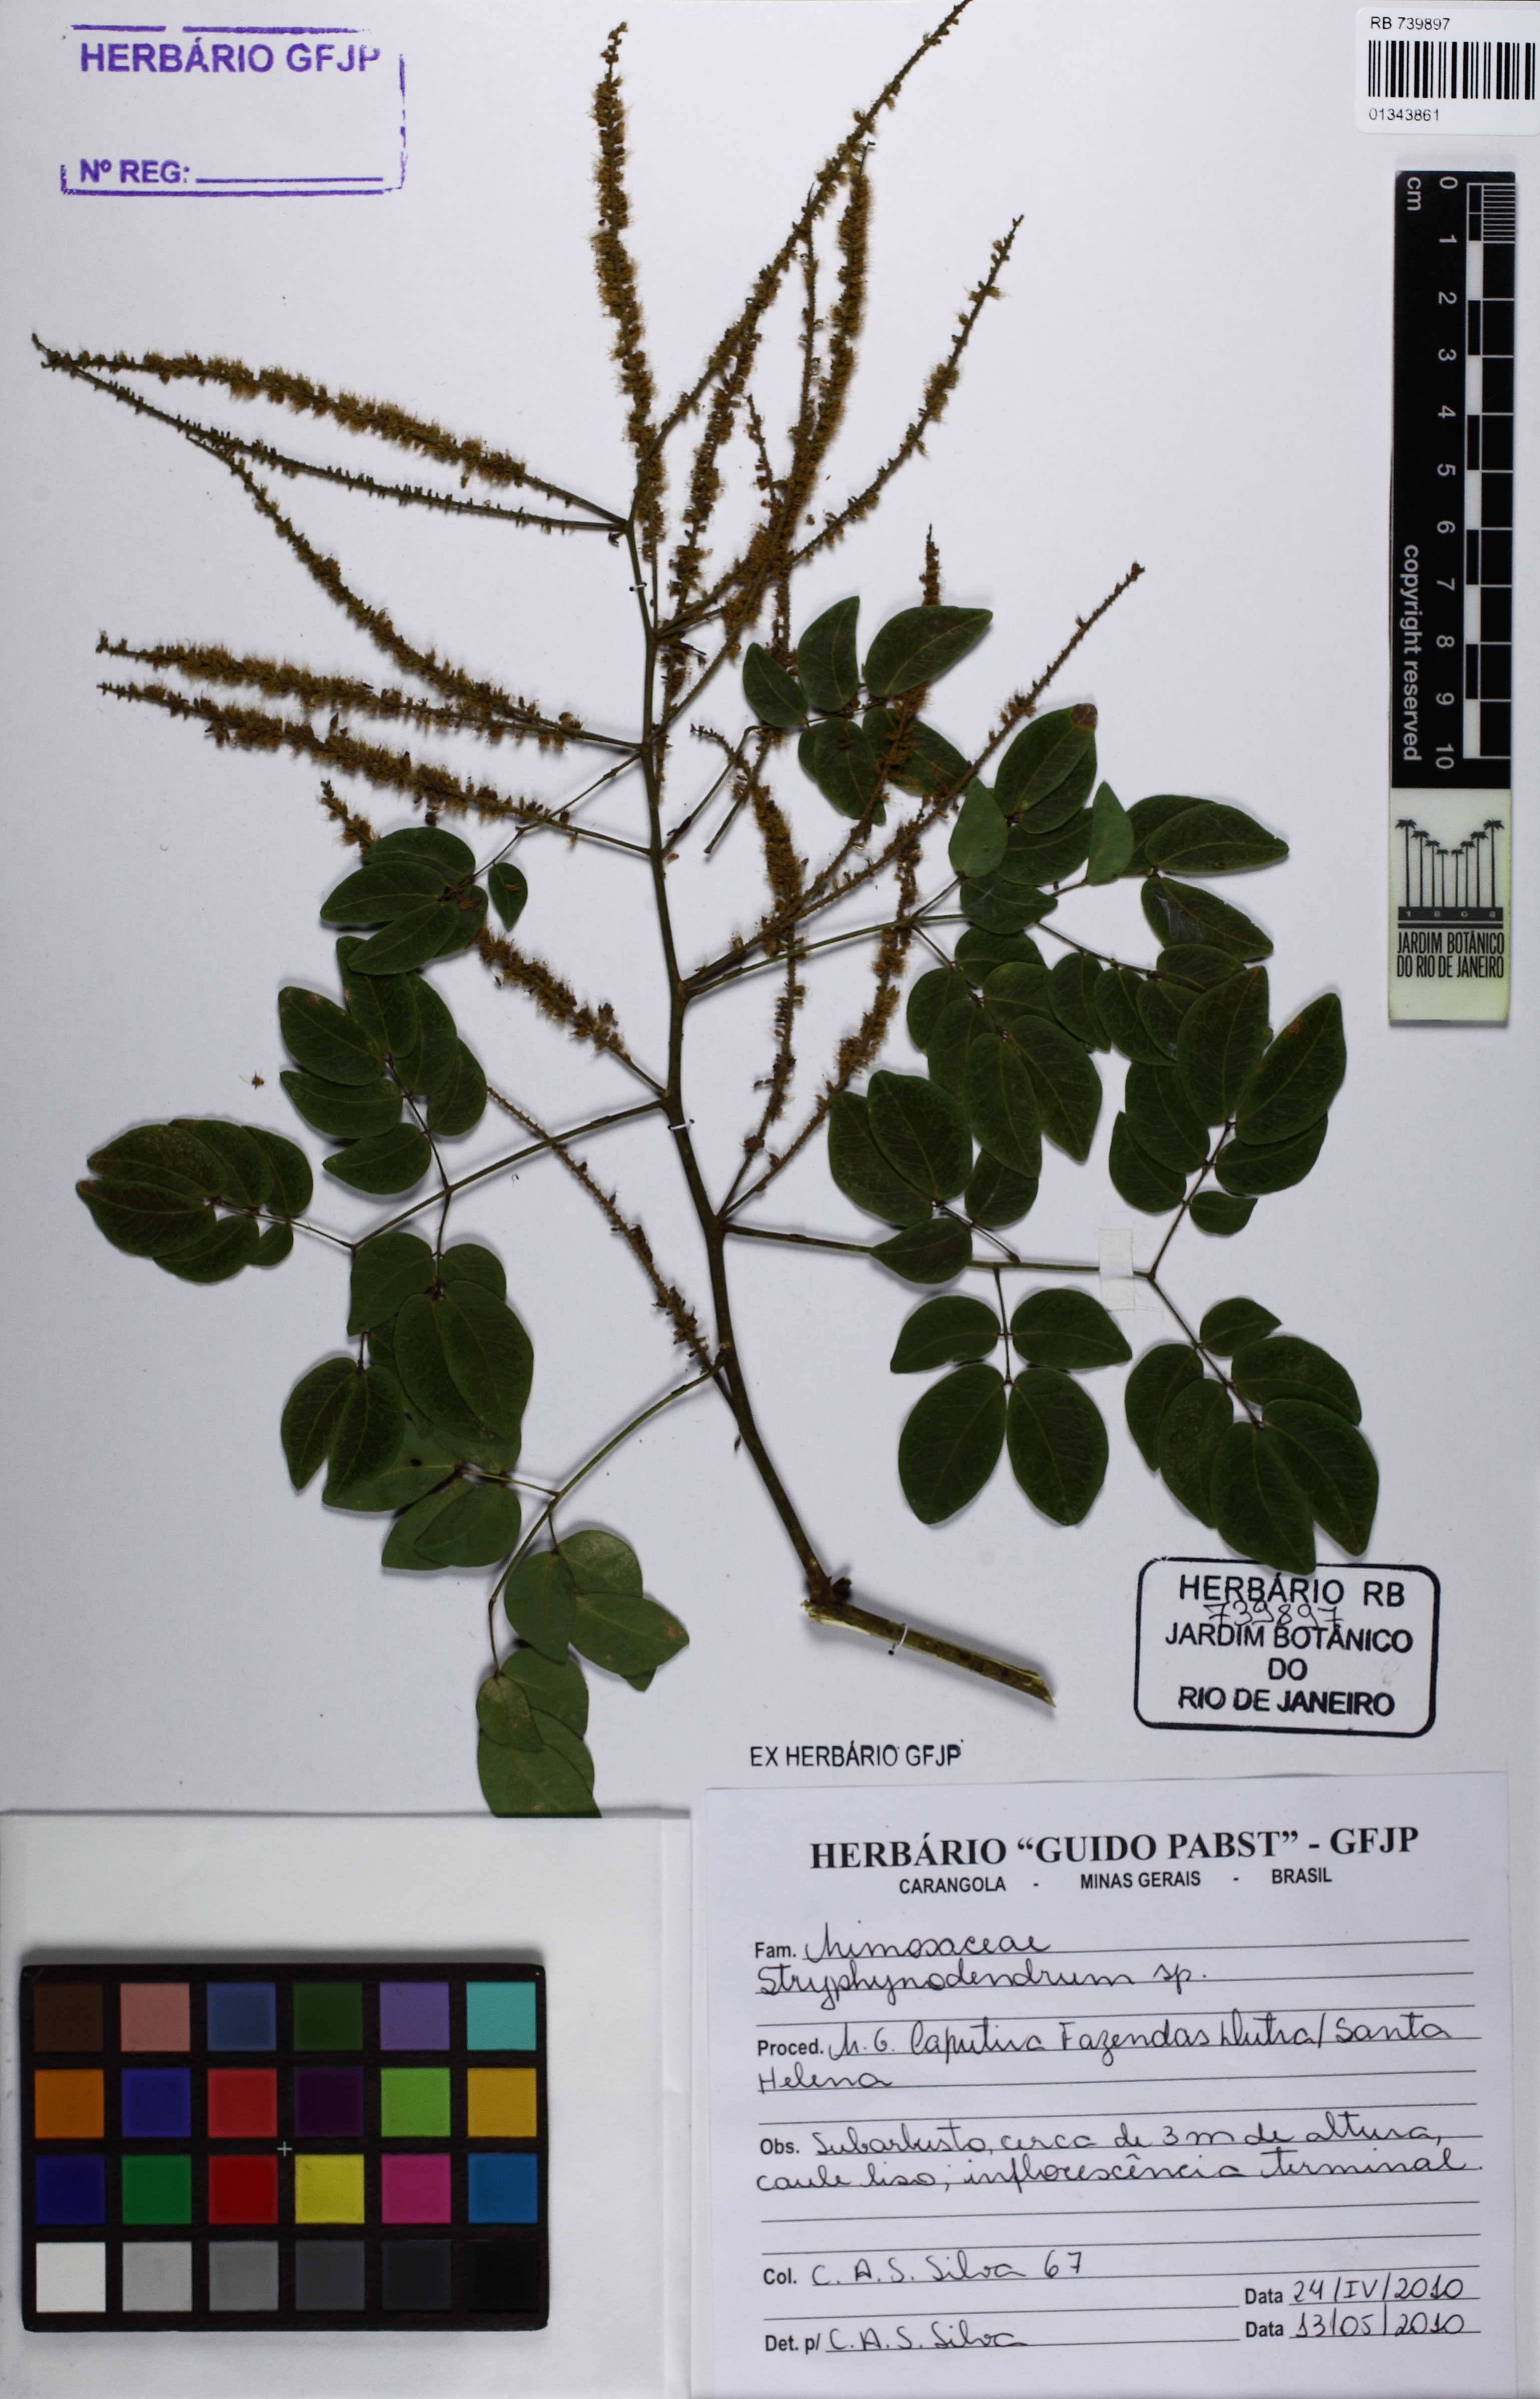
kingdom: Plantae
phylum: Tracheophyta
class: Magnoliopsida
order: Fabales
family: Fabaceae
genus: Stryphnodendron
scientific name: Stryphnodendron
